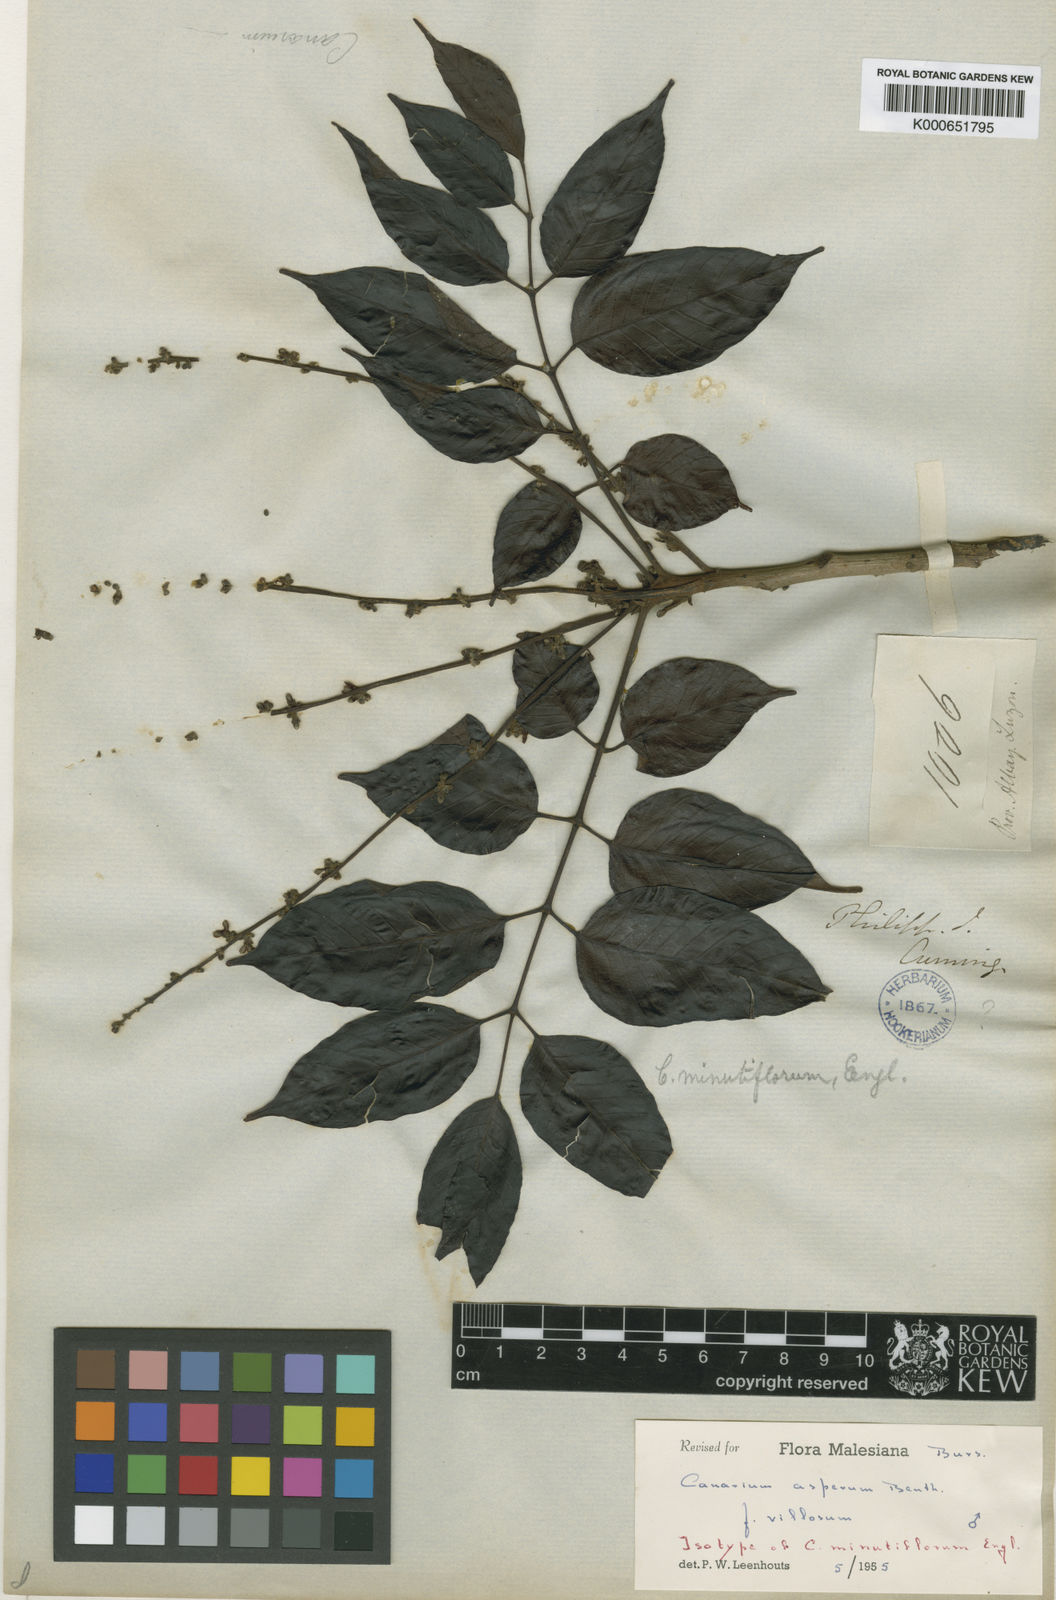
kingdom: Plantae
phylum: Tracheophyta
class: Magnoliopsida
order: Sapindales
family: Burseraceae
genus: Canarium
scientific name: Canarium asperum
